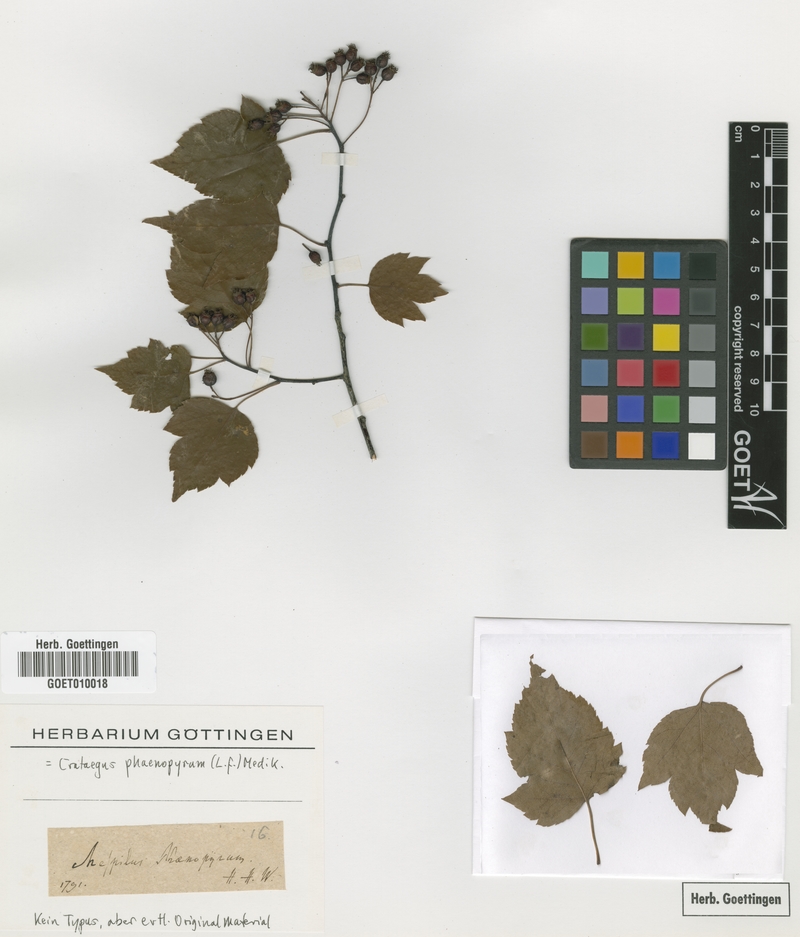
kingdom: Plantae
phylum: Tracheophyta
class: Magnoliopsida
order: Rosales
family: Rosaceae
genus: Crataegus
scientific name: Crataegus phaenopyrum
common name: Washington hawthorn
